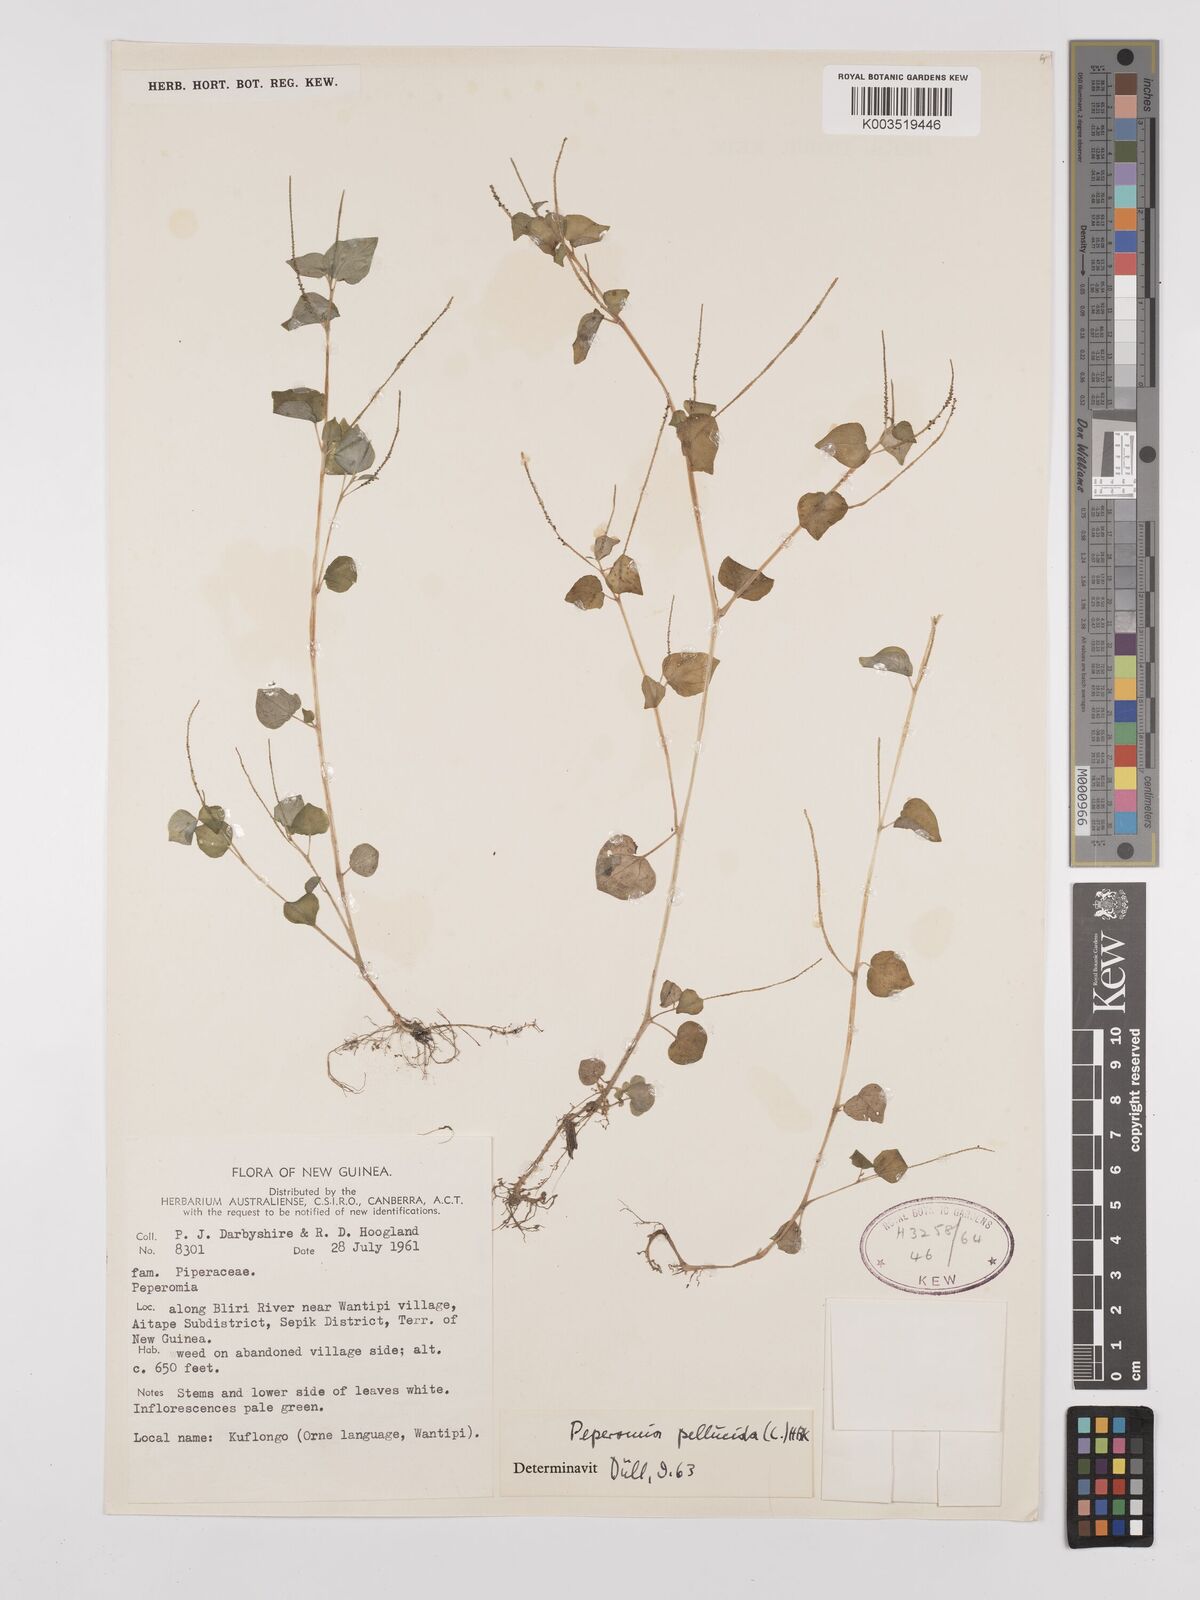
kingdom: Plantae
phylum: Tracheophyta
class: Magnoliopsida
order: Piperales
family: Piperaceae
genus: Peperomia
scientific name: Peperomia pellucida
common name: Man to man
